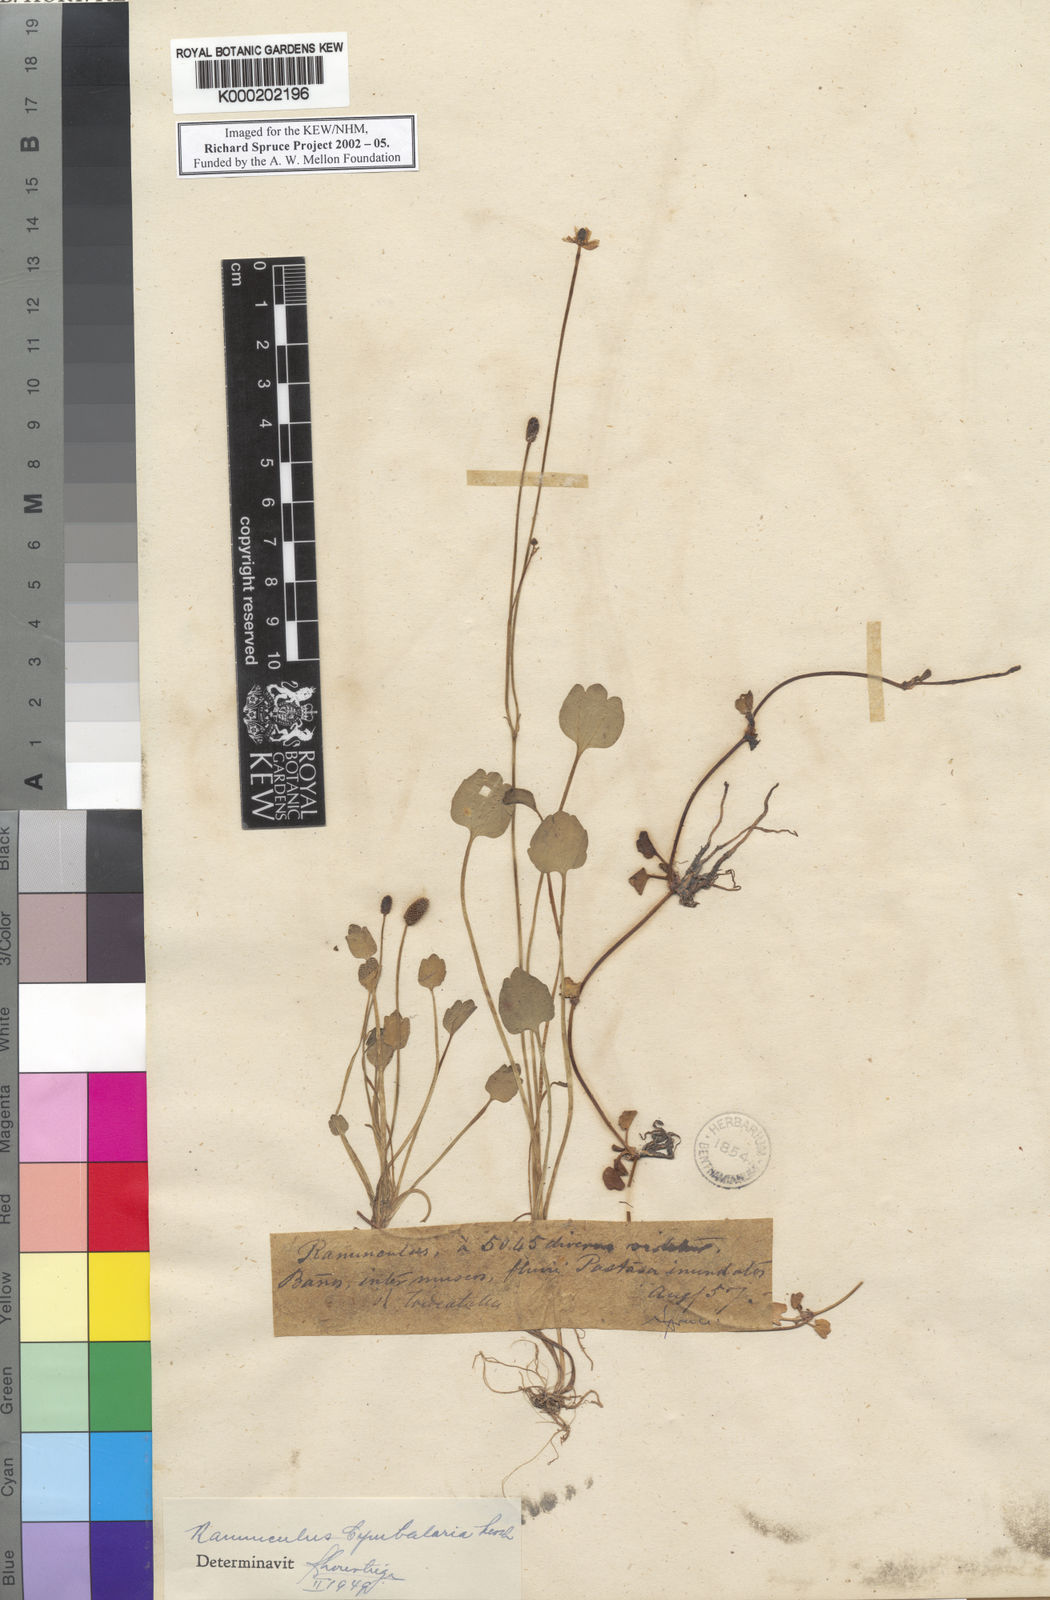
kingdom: Plantae
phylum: Tracheophyta
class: Magnoliopsida
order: Ranunculales
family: Ranunculaceae
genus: Halerpestes
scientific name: Halerpestes cymbalaria
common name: Seaside crowfoot
